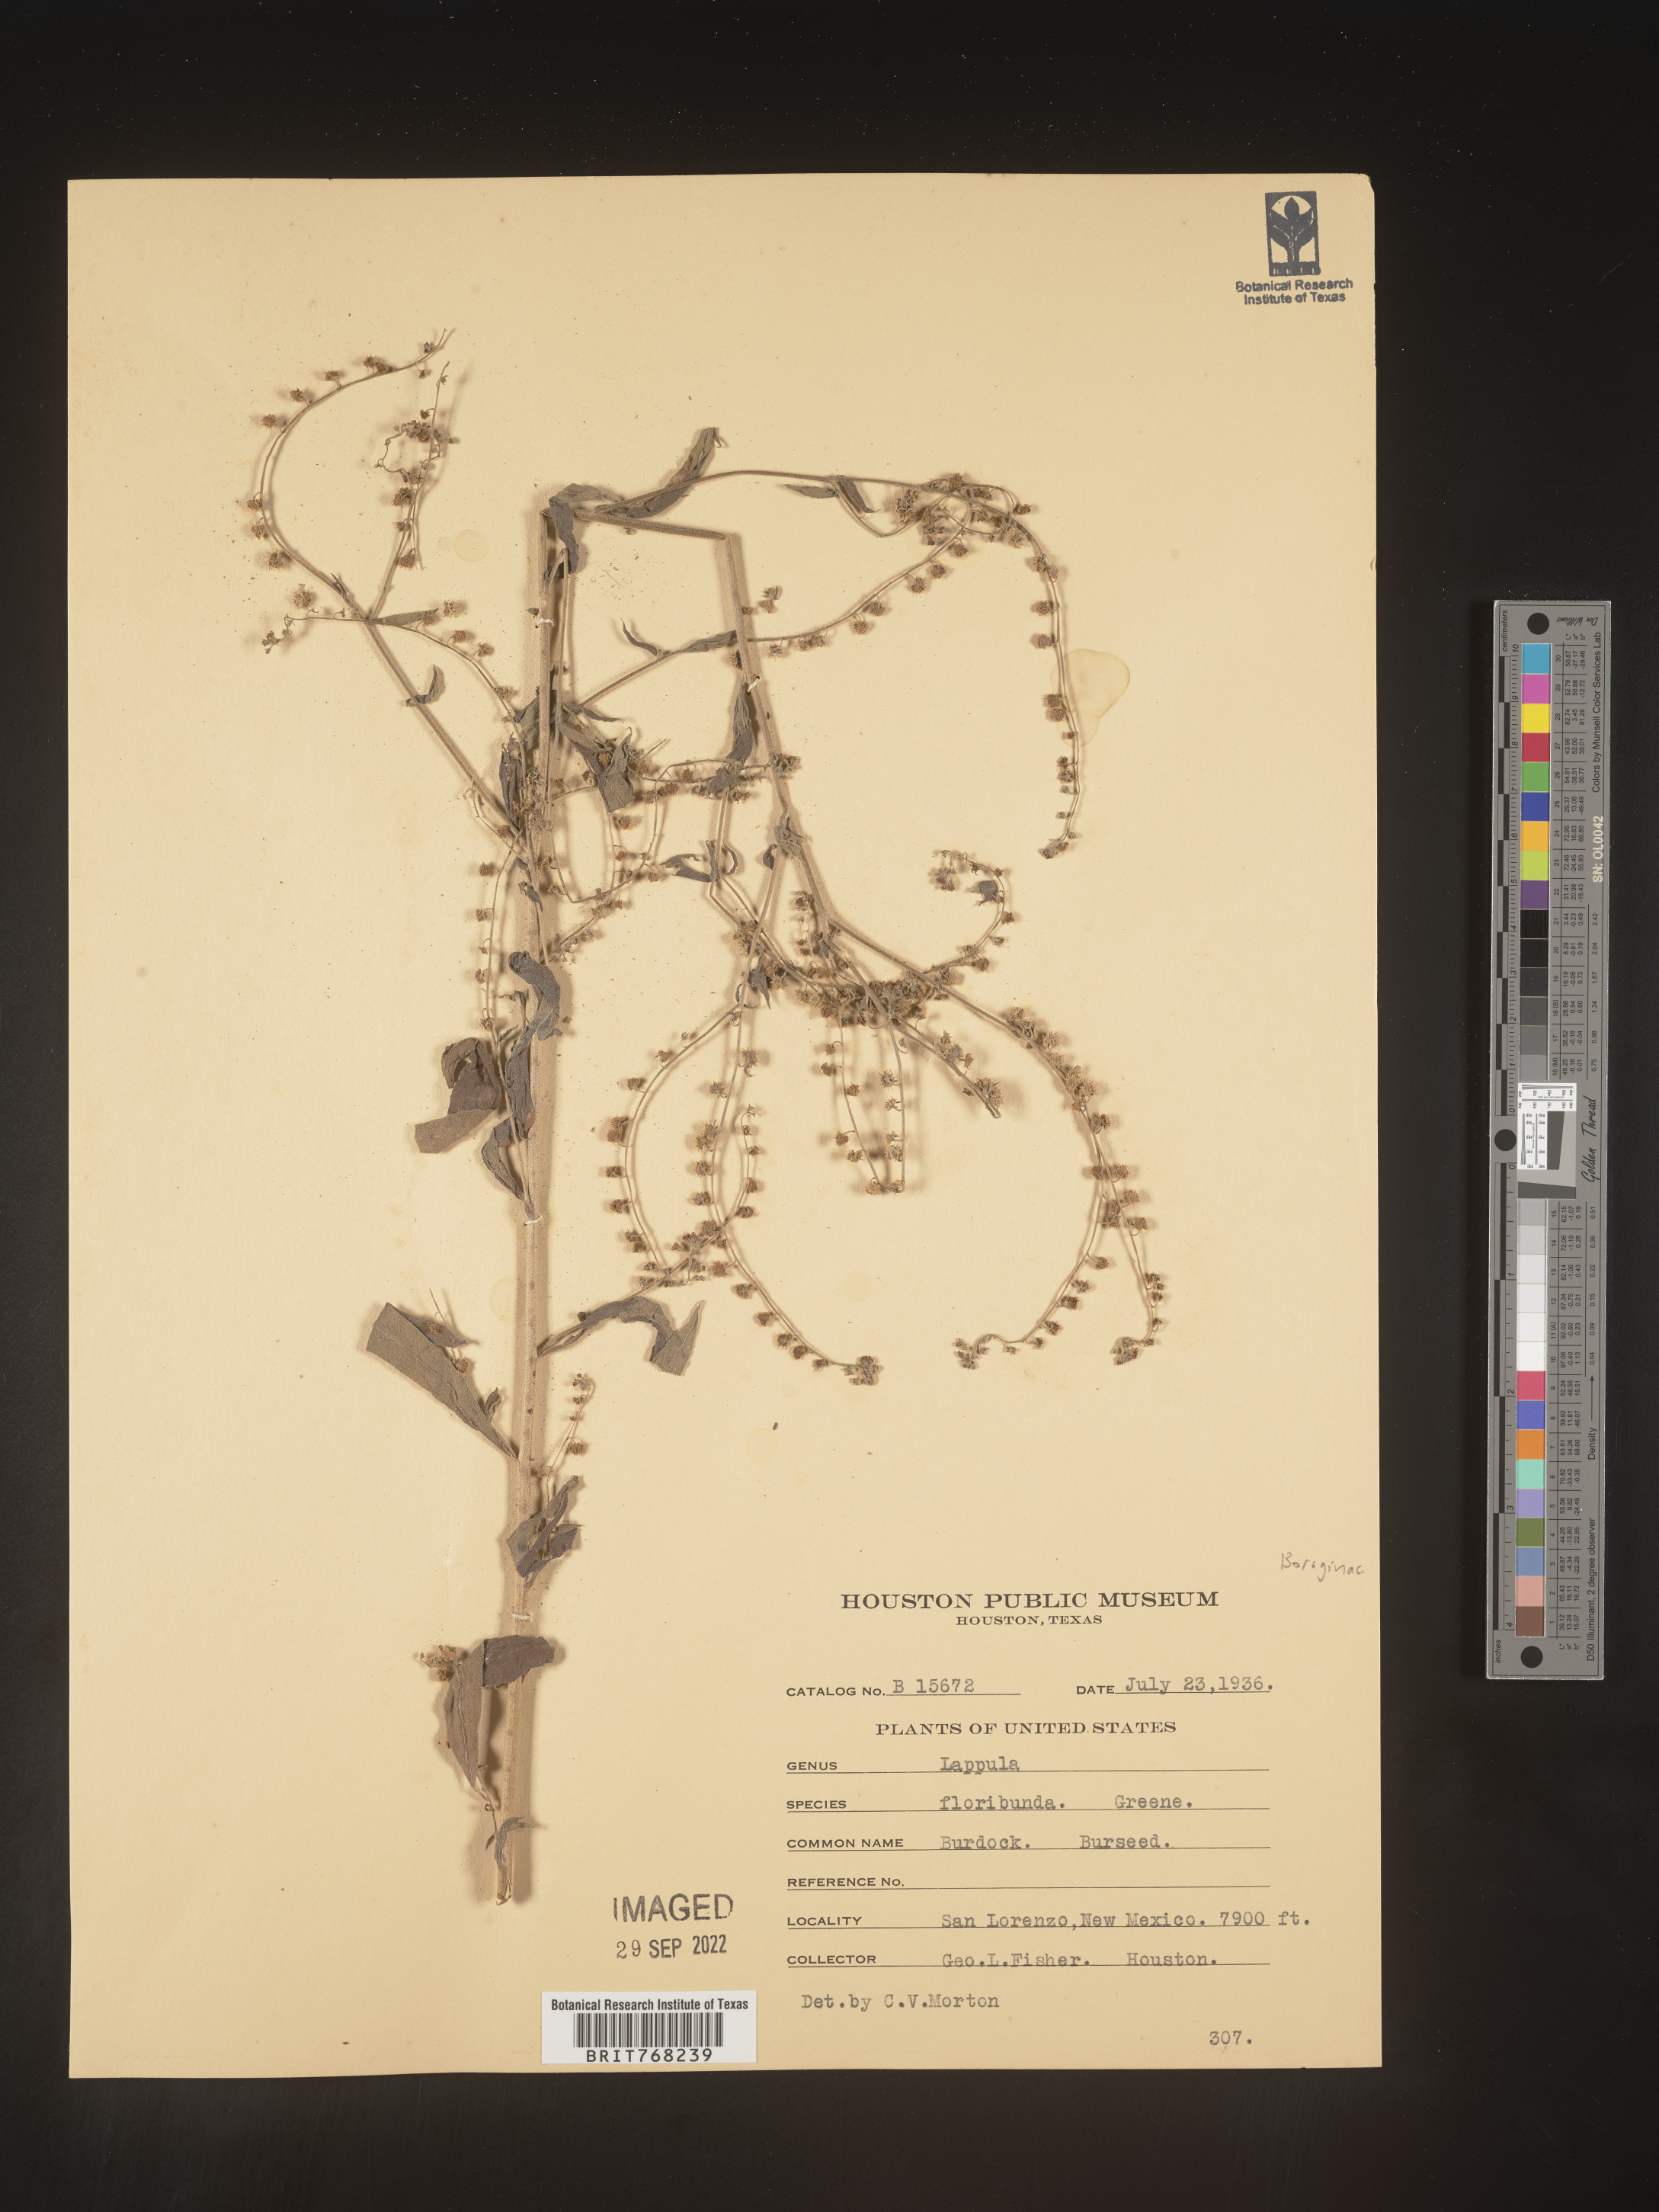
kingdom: Plantae
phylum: Tracheophyta
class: Magnoliopsida
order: Boraginales
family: Boraginaceae
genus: Lappula
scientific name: Lappula
